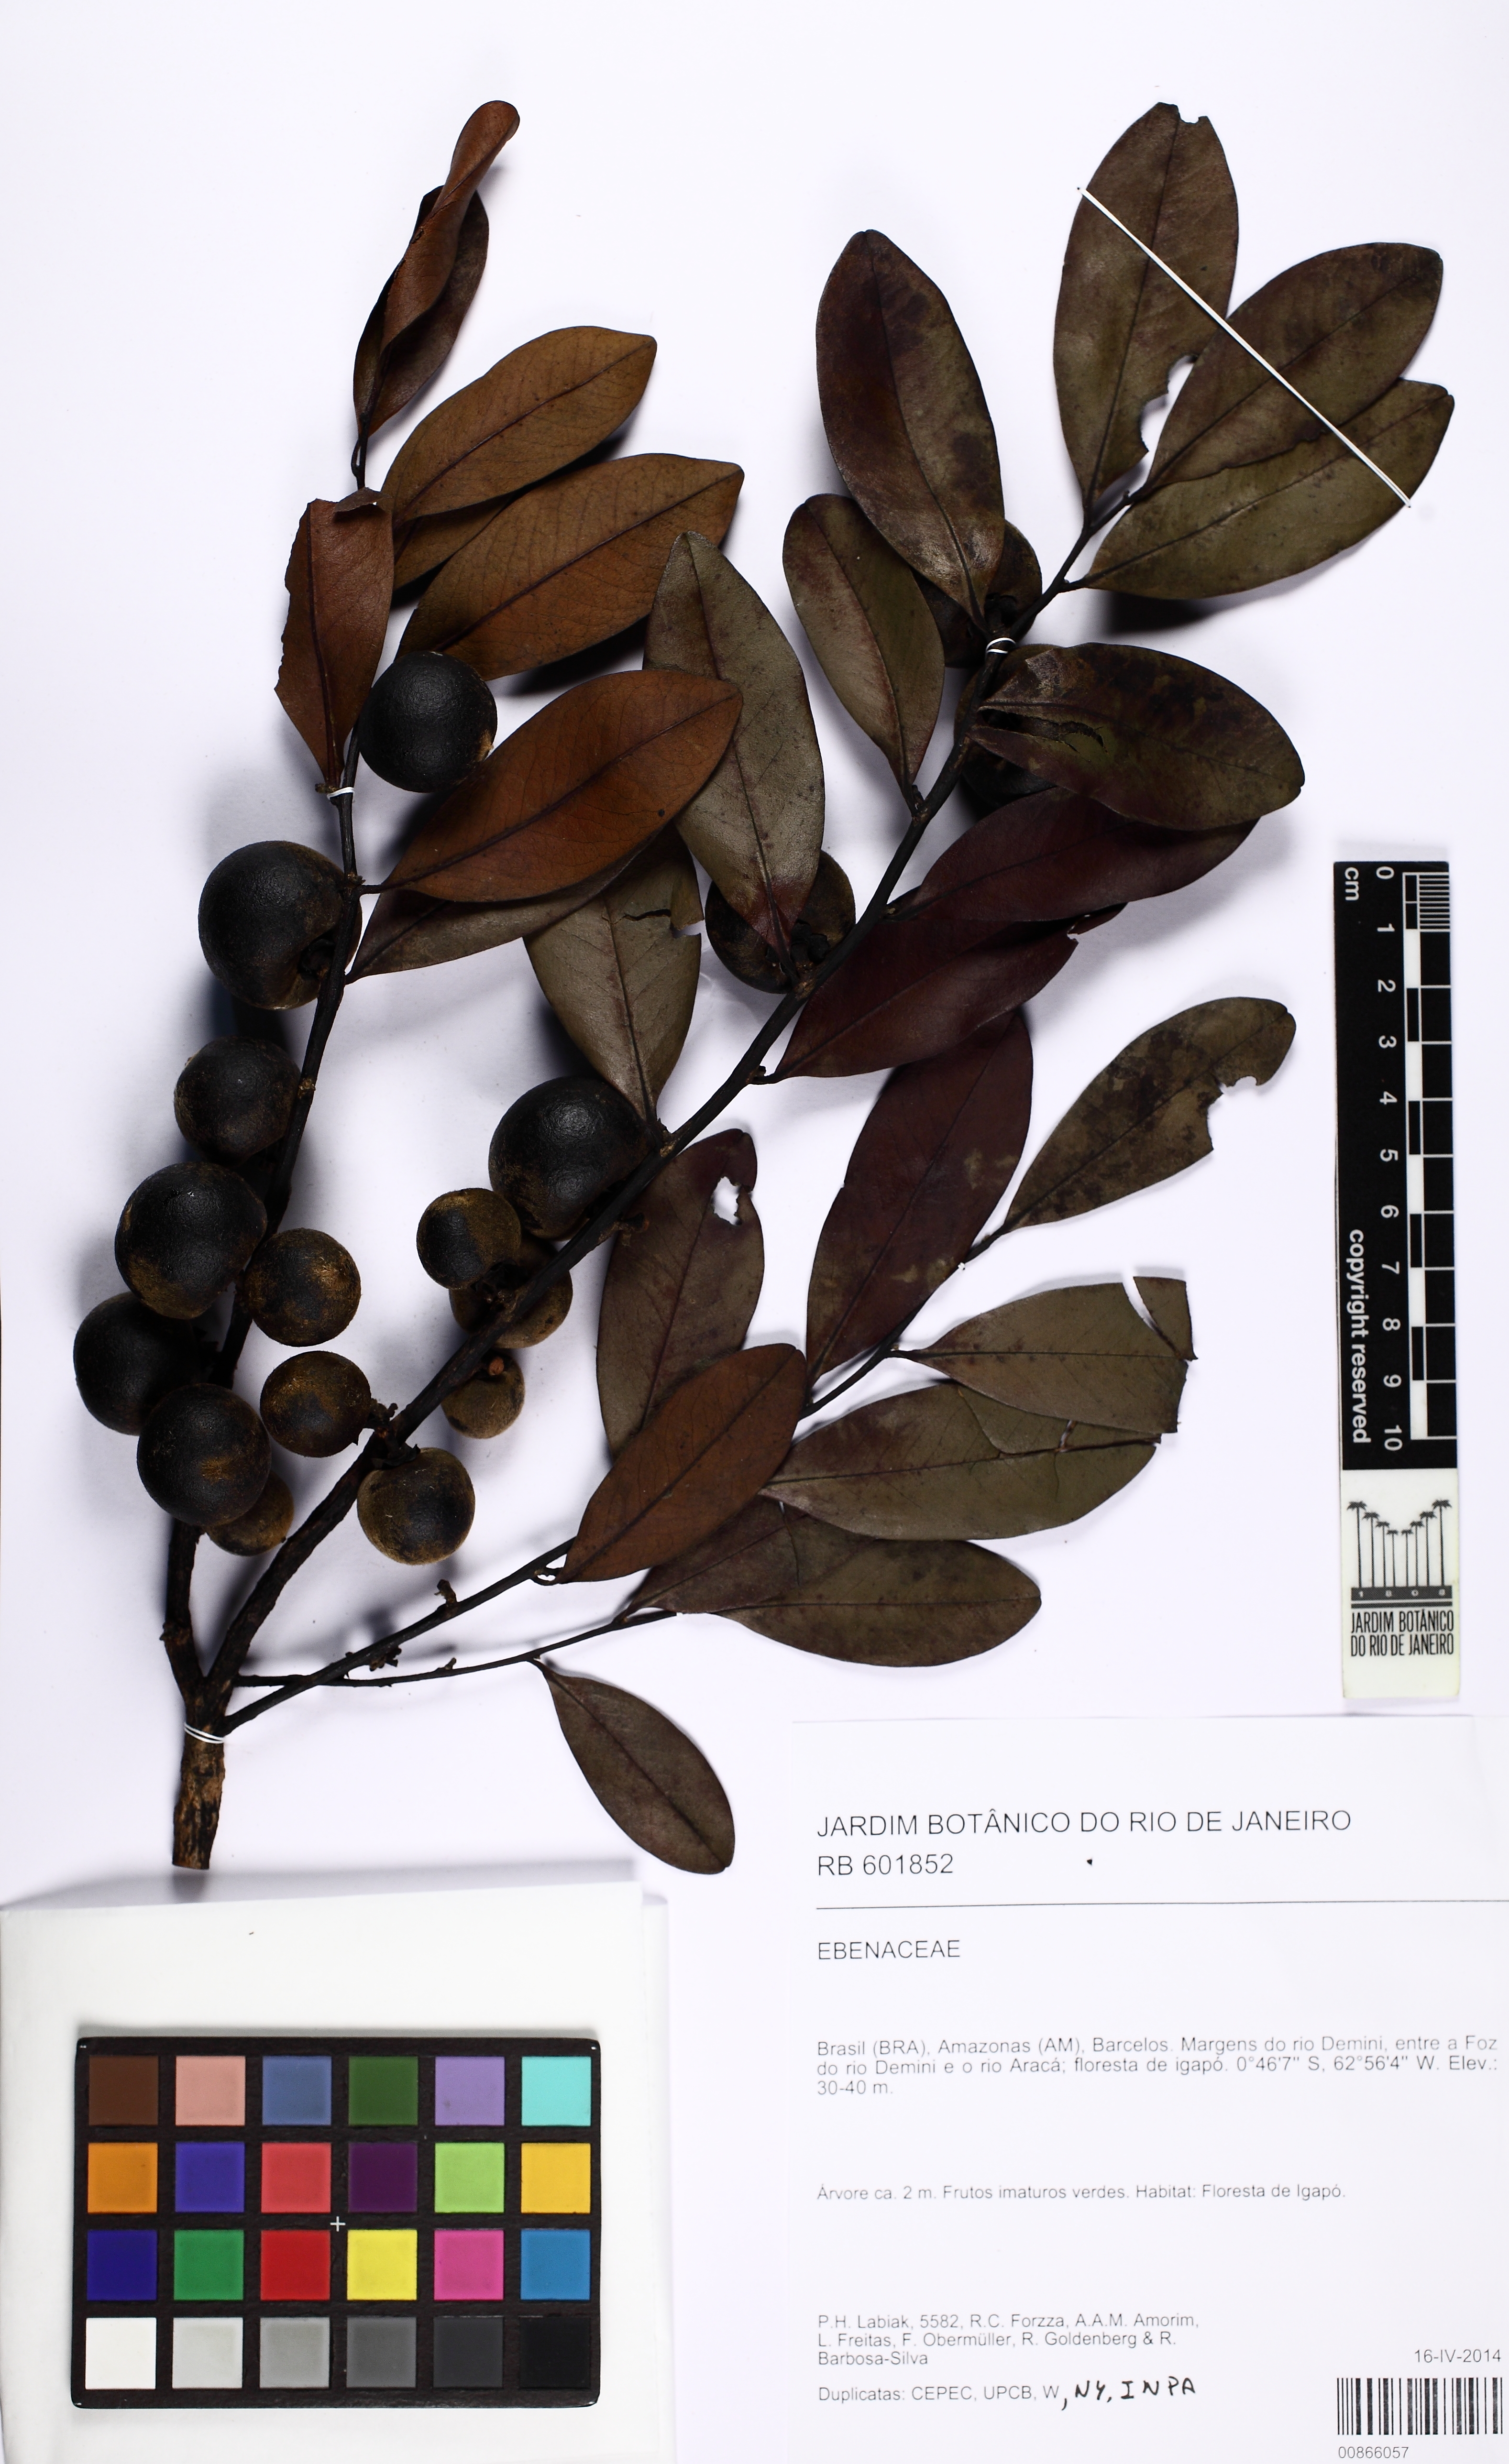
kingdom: Plantae
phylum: Tracheophyta
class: Magnoliopsida
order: Ericales
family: Ebenaceae
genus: Diospyros
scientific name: Diospyros poeppigiana
